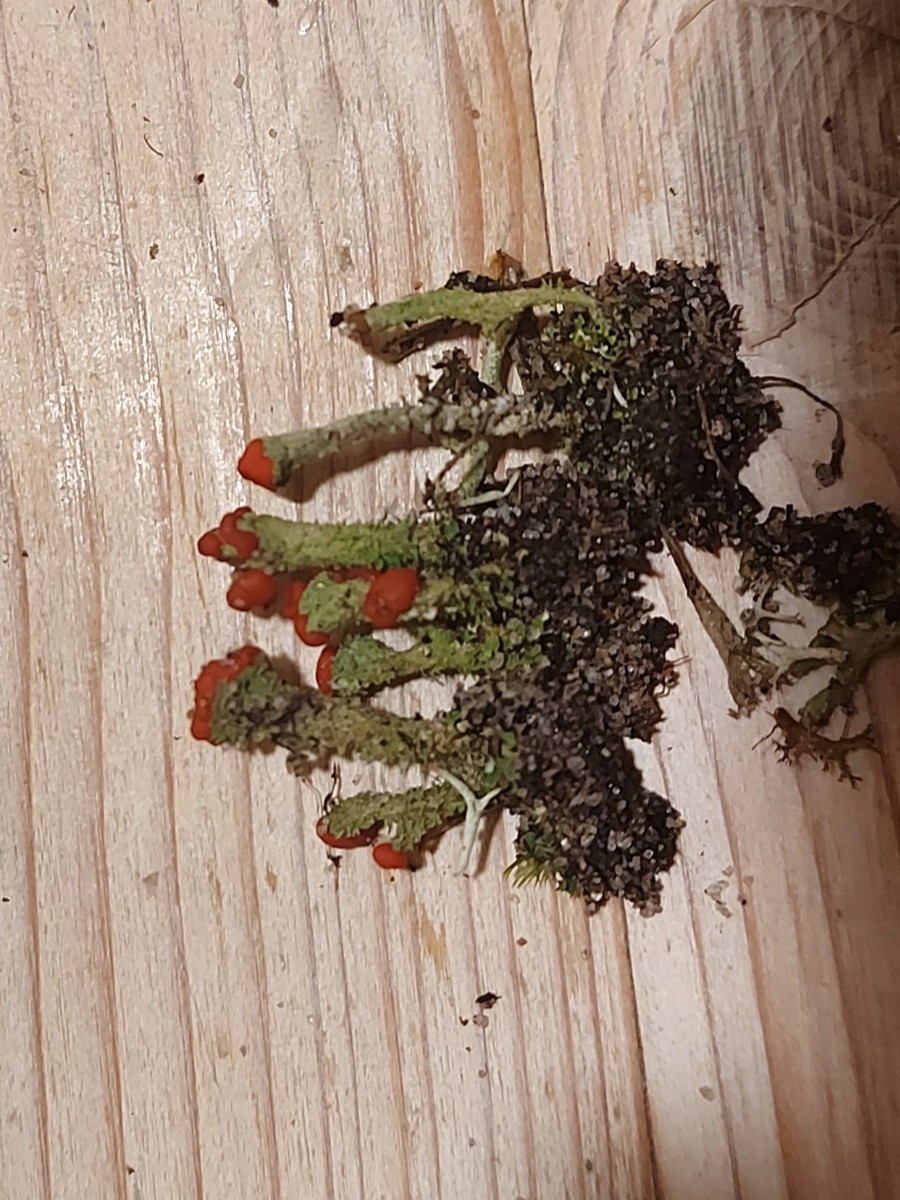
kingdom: Fungi
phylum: Ascomycota
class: Lecanoromycetes
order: Lecanorales
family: Cladoniaceae
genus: Cladonia
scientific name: Cladonia floerkeana
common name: lakrød bægerlav
